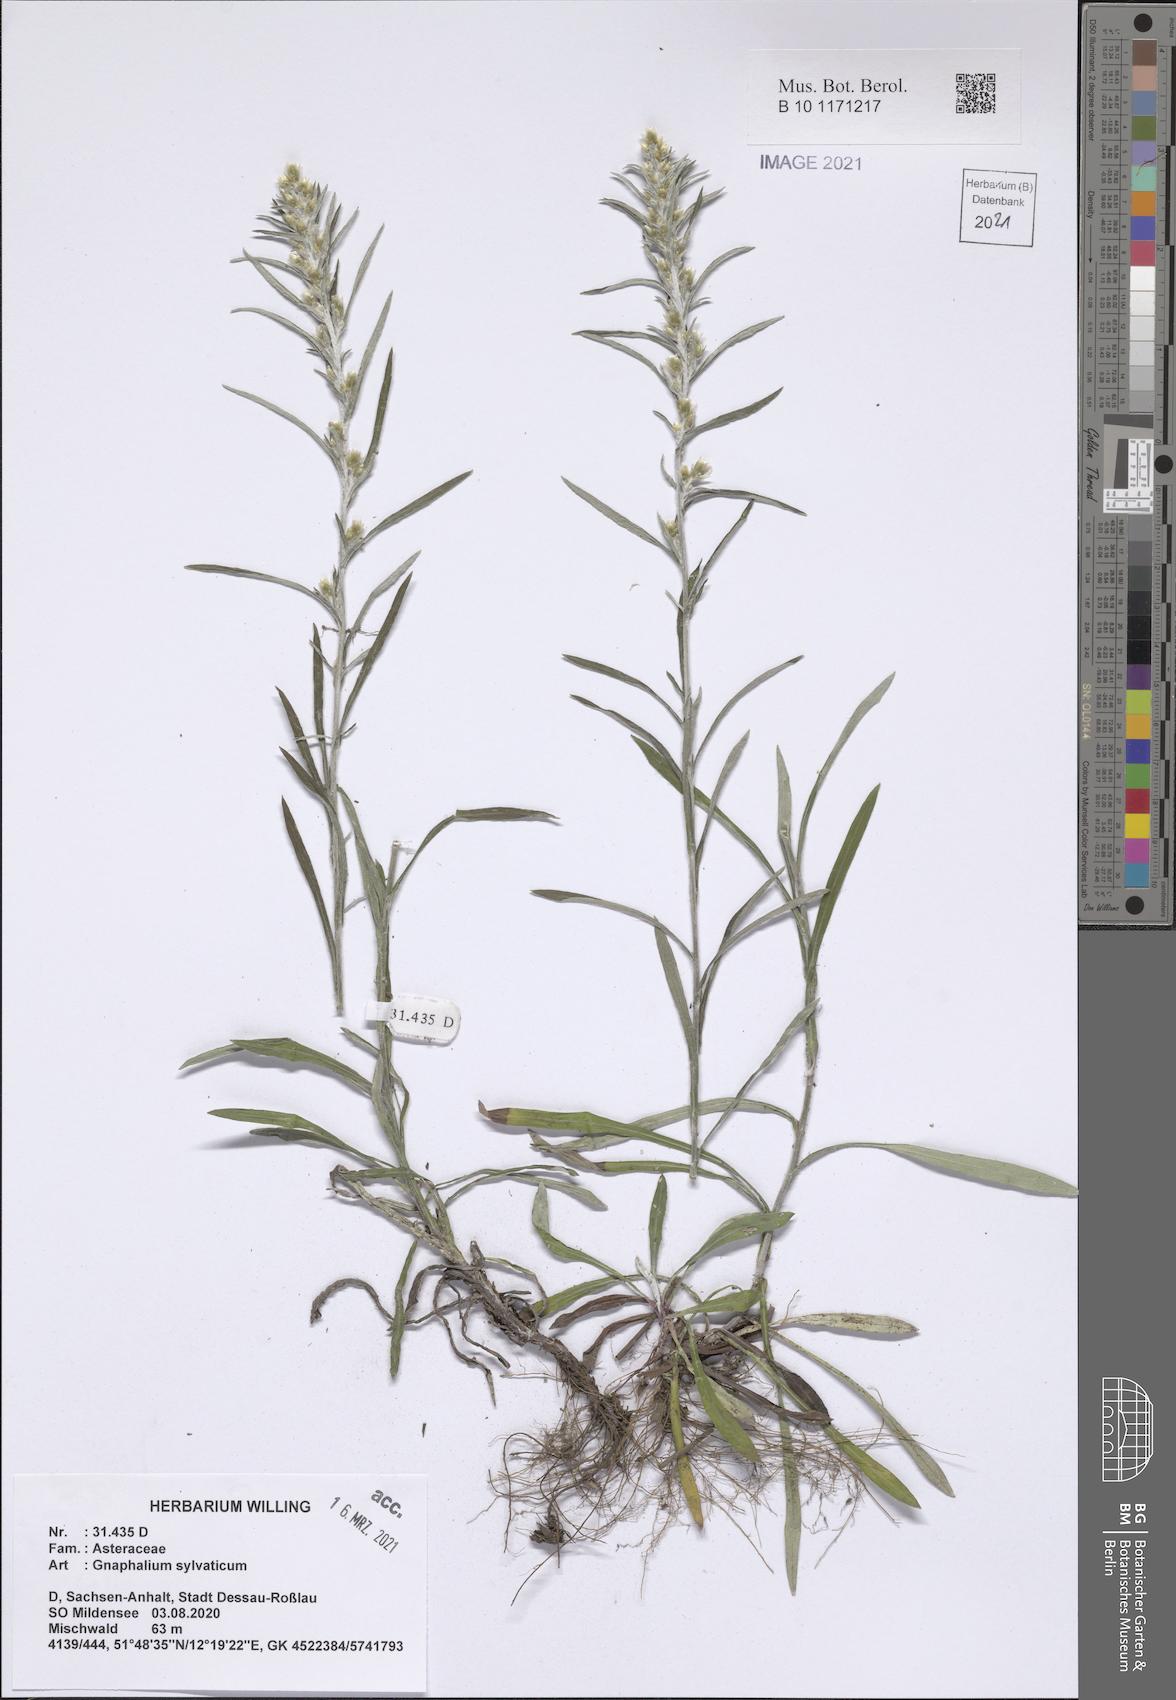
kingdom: Plantae
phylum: Tracheophyta
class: Magnoliopsida
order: Asterales
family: Asteraceae
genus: Omalotheca
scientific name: Omalotheca sylvatica
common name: Heath cudweed
